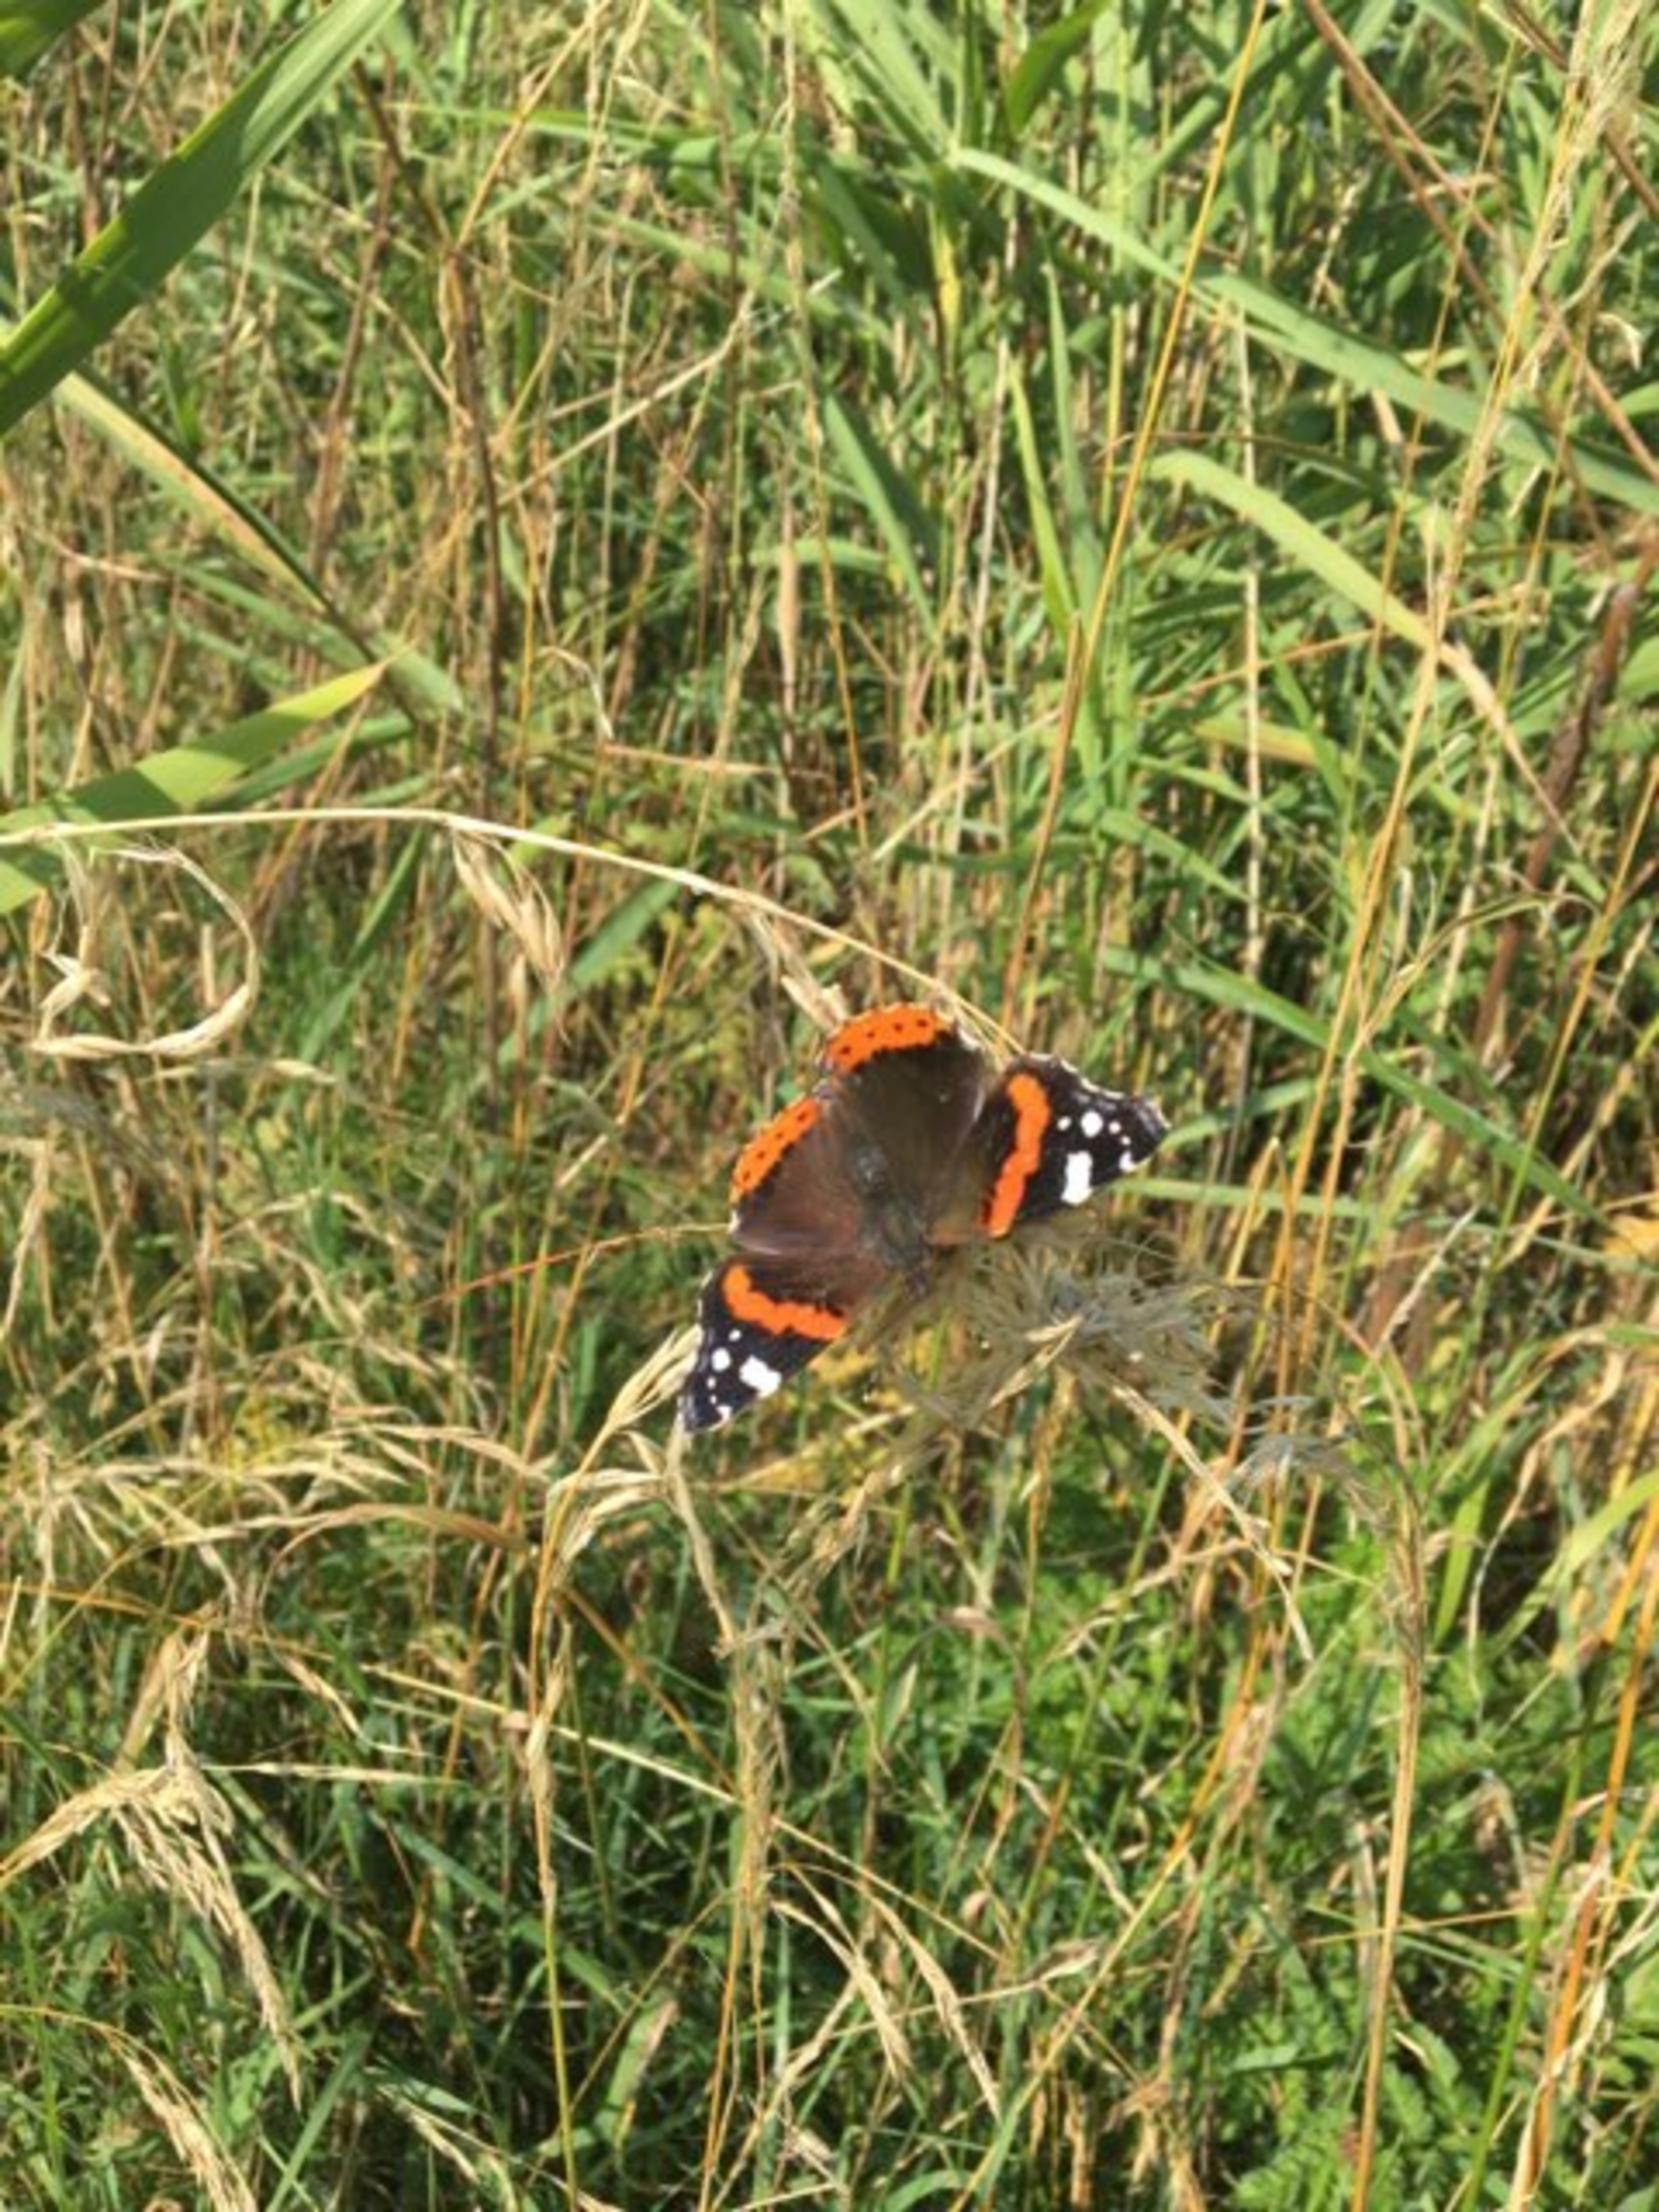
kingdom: Animalia
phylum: Arthropoda
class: Insecta
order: Lepidoptera
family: Nymphalidae
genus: Vanessa
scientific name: Vanessa atalanta
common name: Admiral
